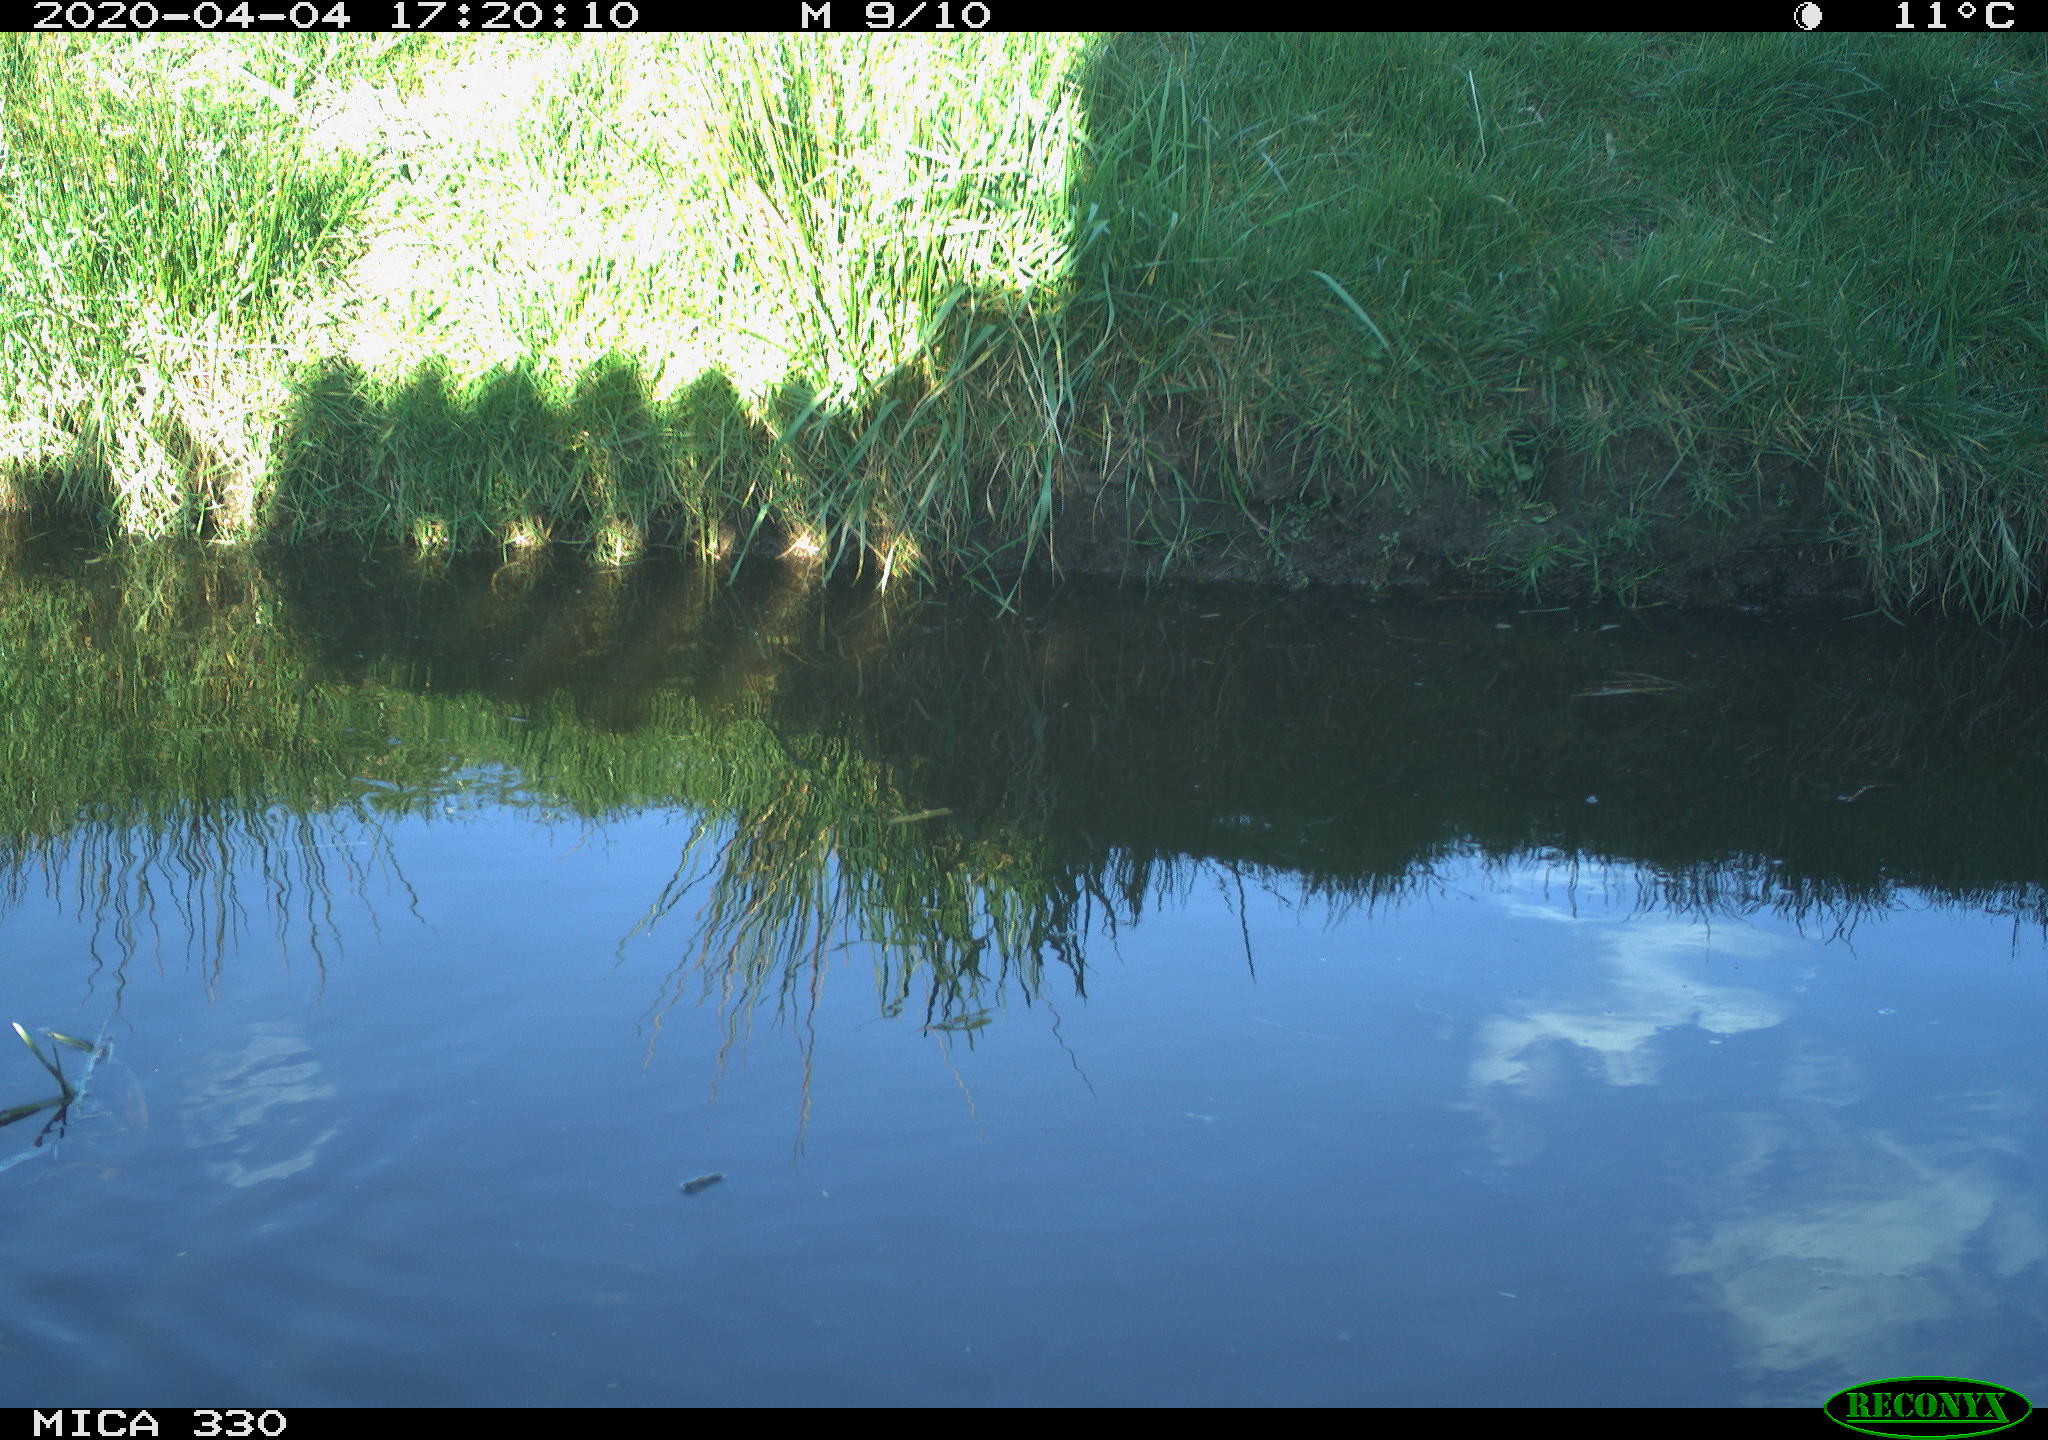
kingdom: Animalia
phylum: Chordata
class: Aves
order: Anseriformes
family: Anatidae
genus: Anas
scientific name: Anas platyrhynchos
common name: Mallard
